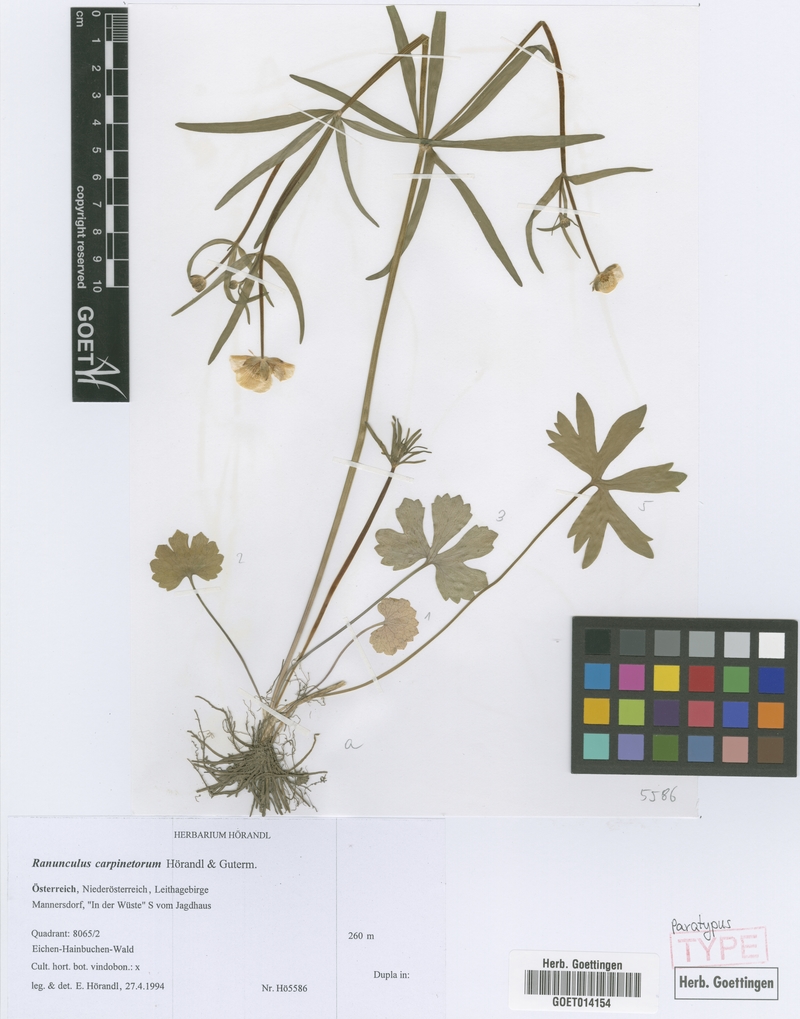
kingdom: Plantae
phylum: Tracheophyta
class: Magnoliopsida
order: Ranunculales
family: Ranunculaceae
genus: Ranunculus
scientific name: Ranunculus carpinetorum
